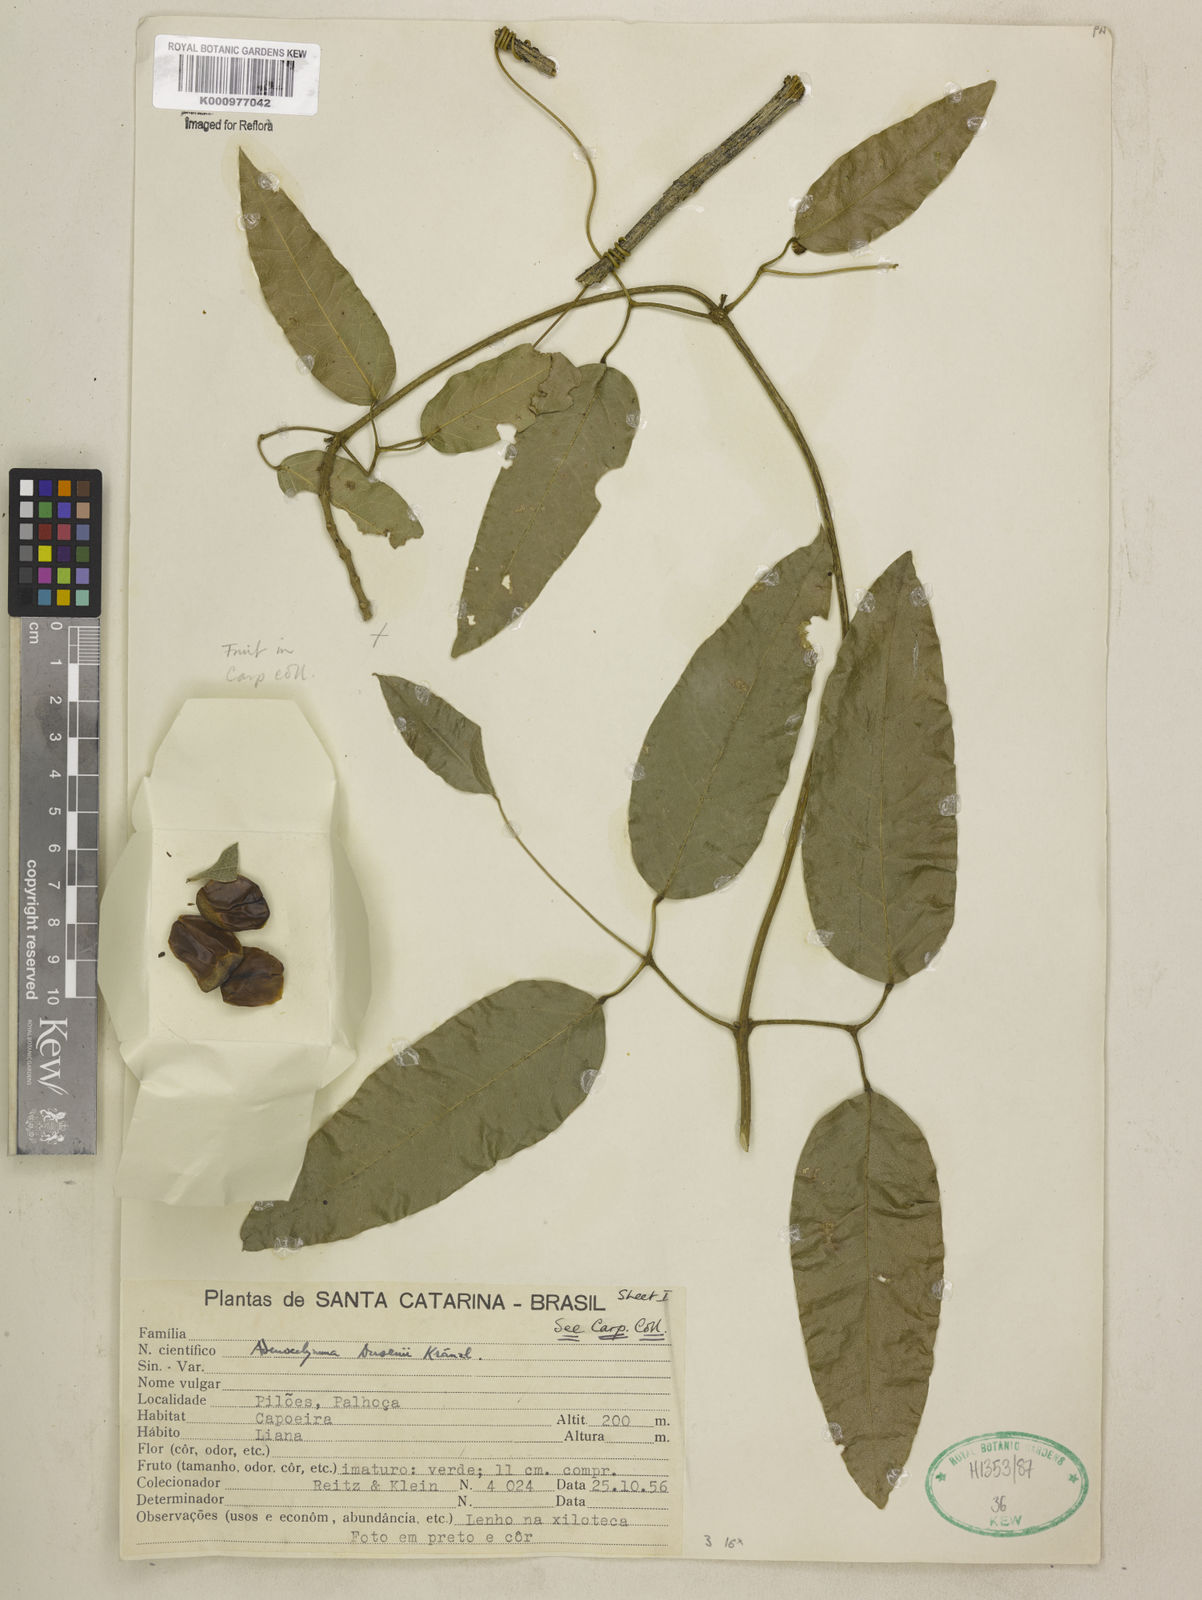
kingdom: Plantae
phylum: Tracheophyta
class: Magnoliopsida
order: Lamiales
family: Bignoniaceae
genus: Adenocalymma
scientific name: Adenocalymma dusenii
